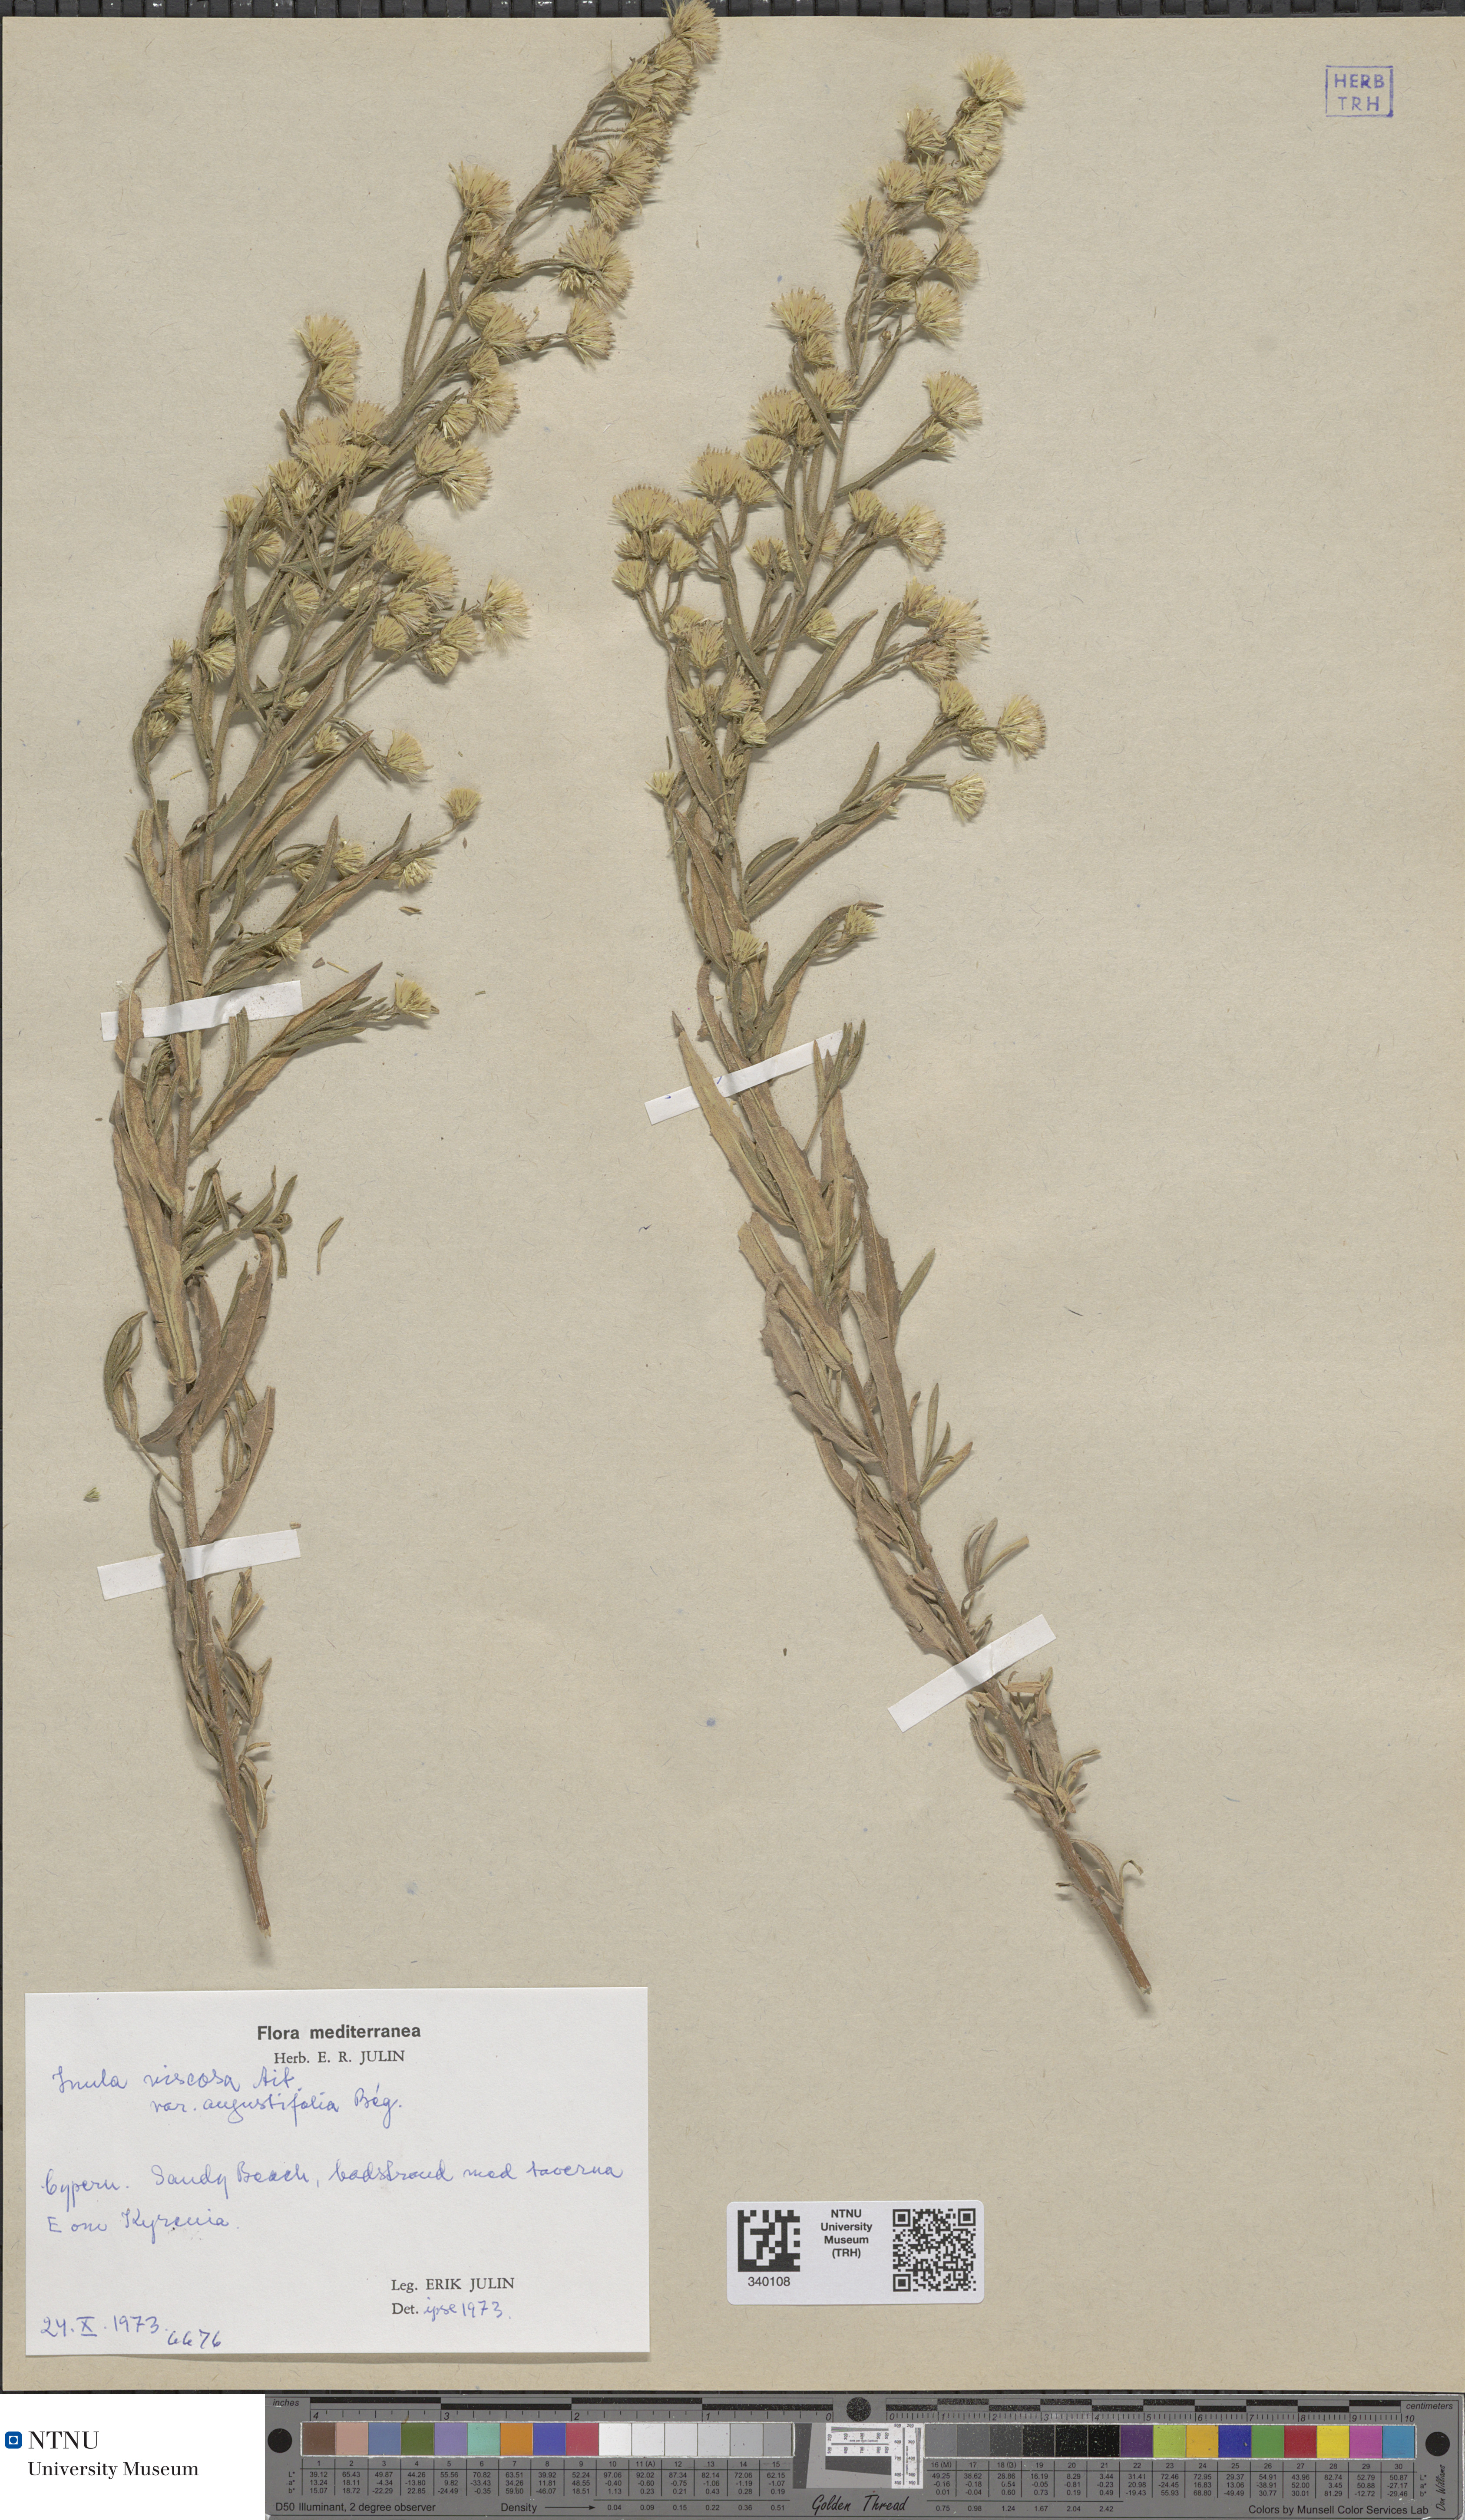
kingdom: Plantae
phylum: Tracheophyta
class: Magnoliopsida
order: Asterales
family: Asteraceae
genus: Dittrichia
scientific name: Dittrichia viscosa
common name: Woody fleabane
